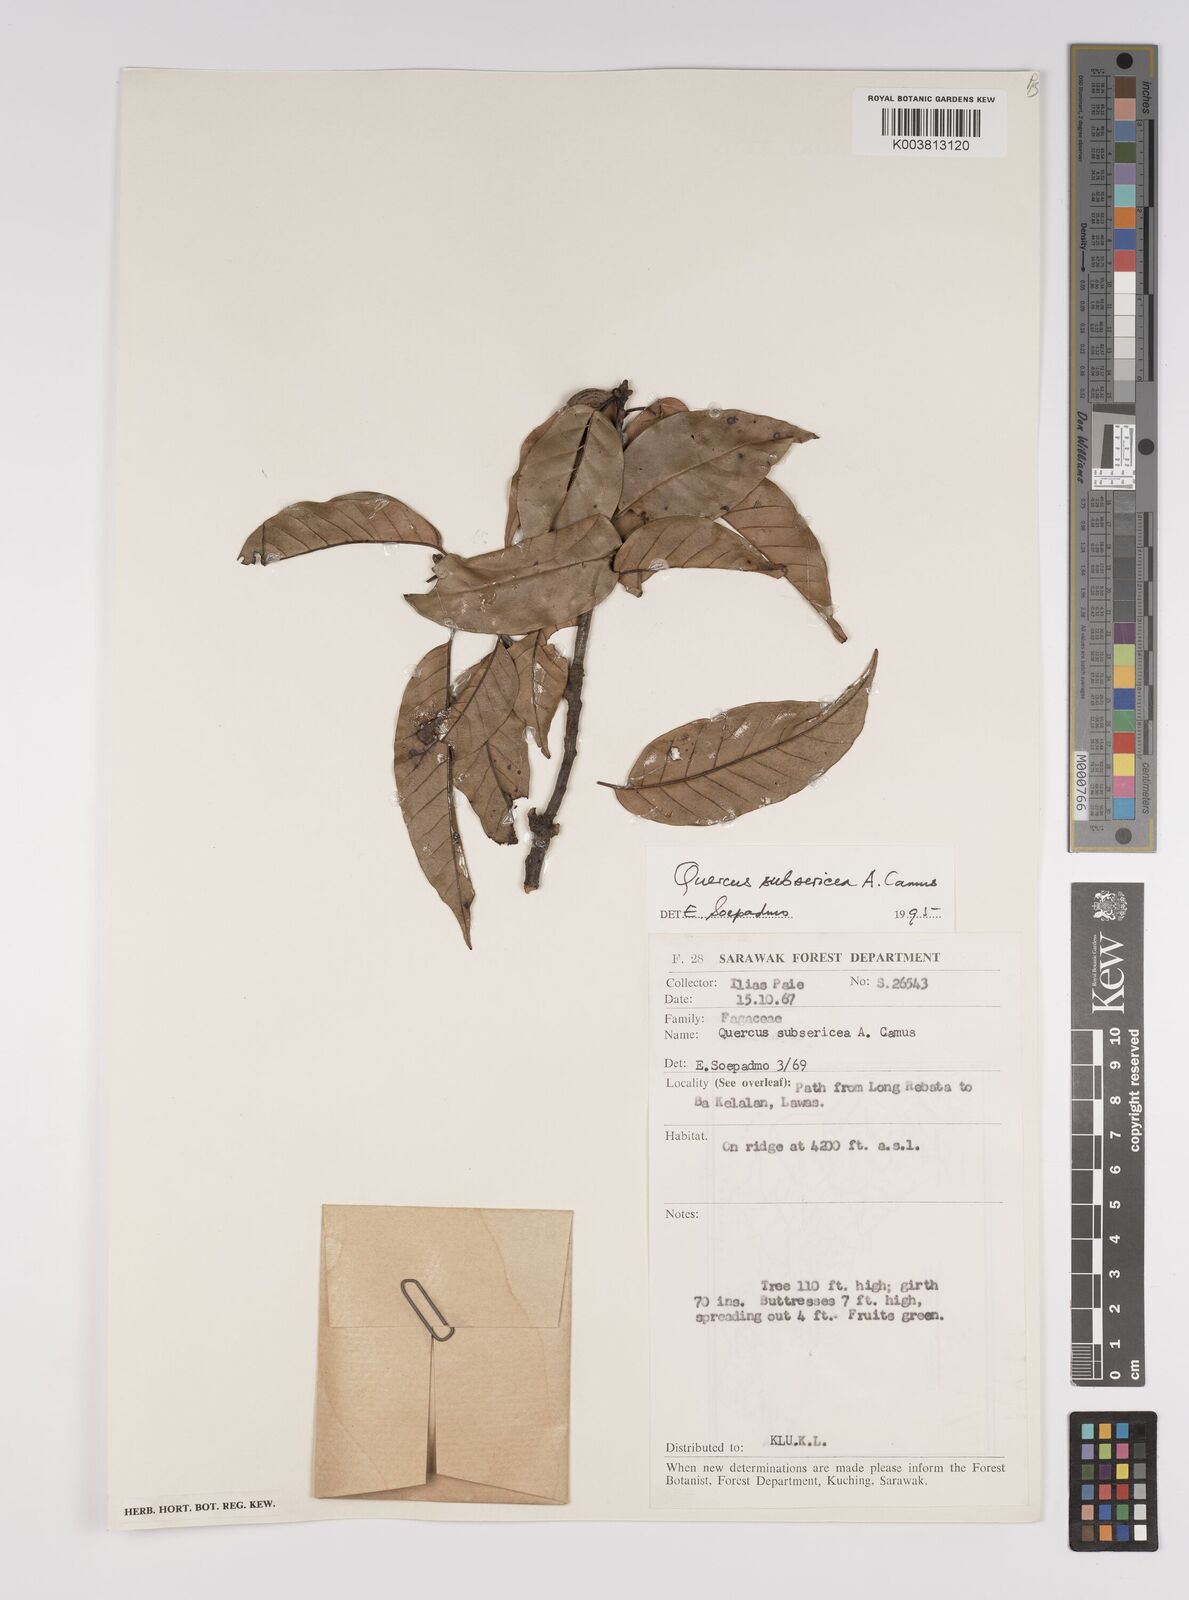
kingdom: Plantae
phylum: Tracheophyta
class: Magnoliopsida
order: Fagales
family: Fagaceae
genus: Quercus
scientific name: Quercus subsericea
